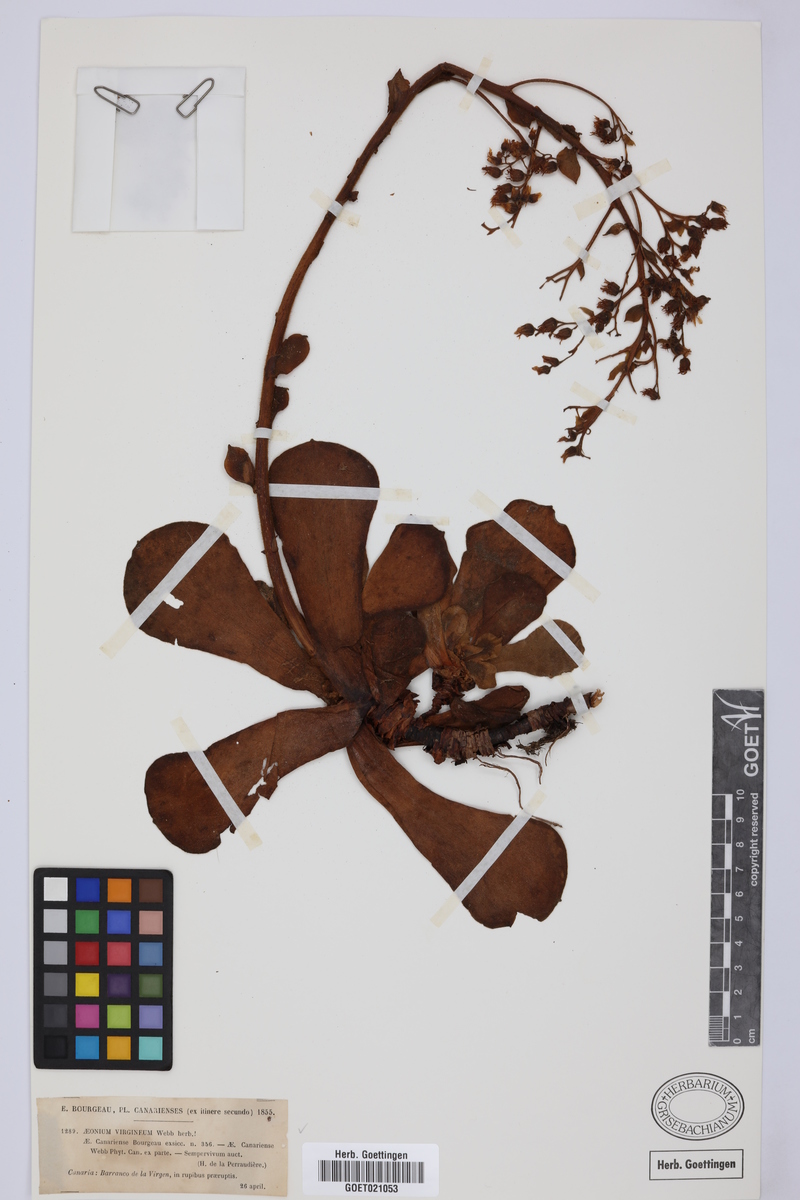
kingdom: Plantae
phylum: Tracheophyta
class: Magnoliopsida
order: Saxifragales
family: Crassulaceae
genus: Aeonium
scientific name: Aeonium canariense
